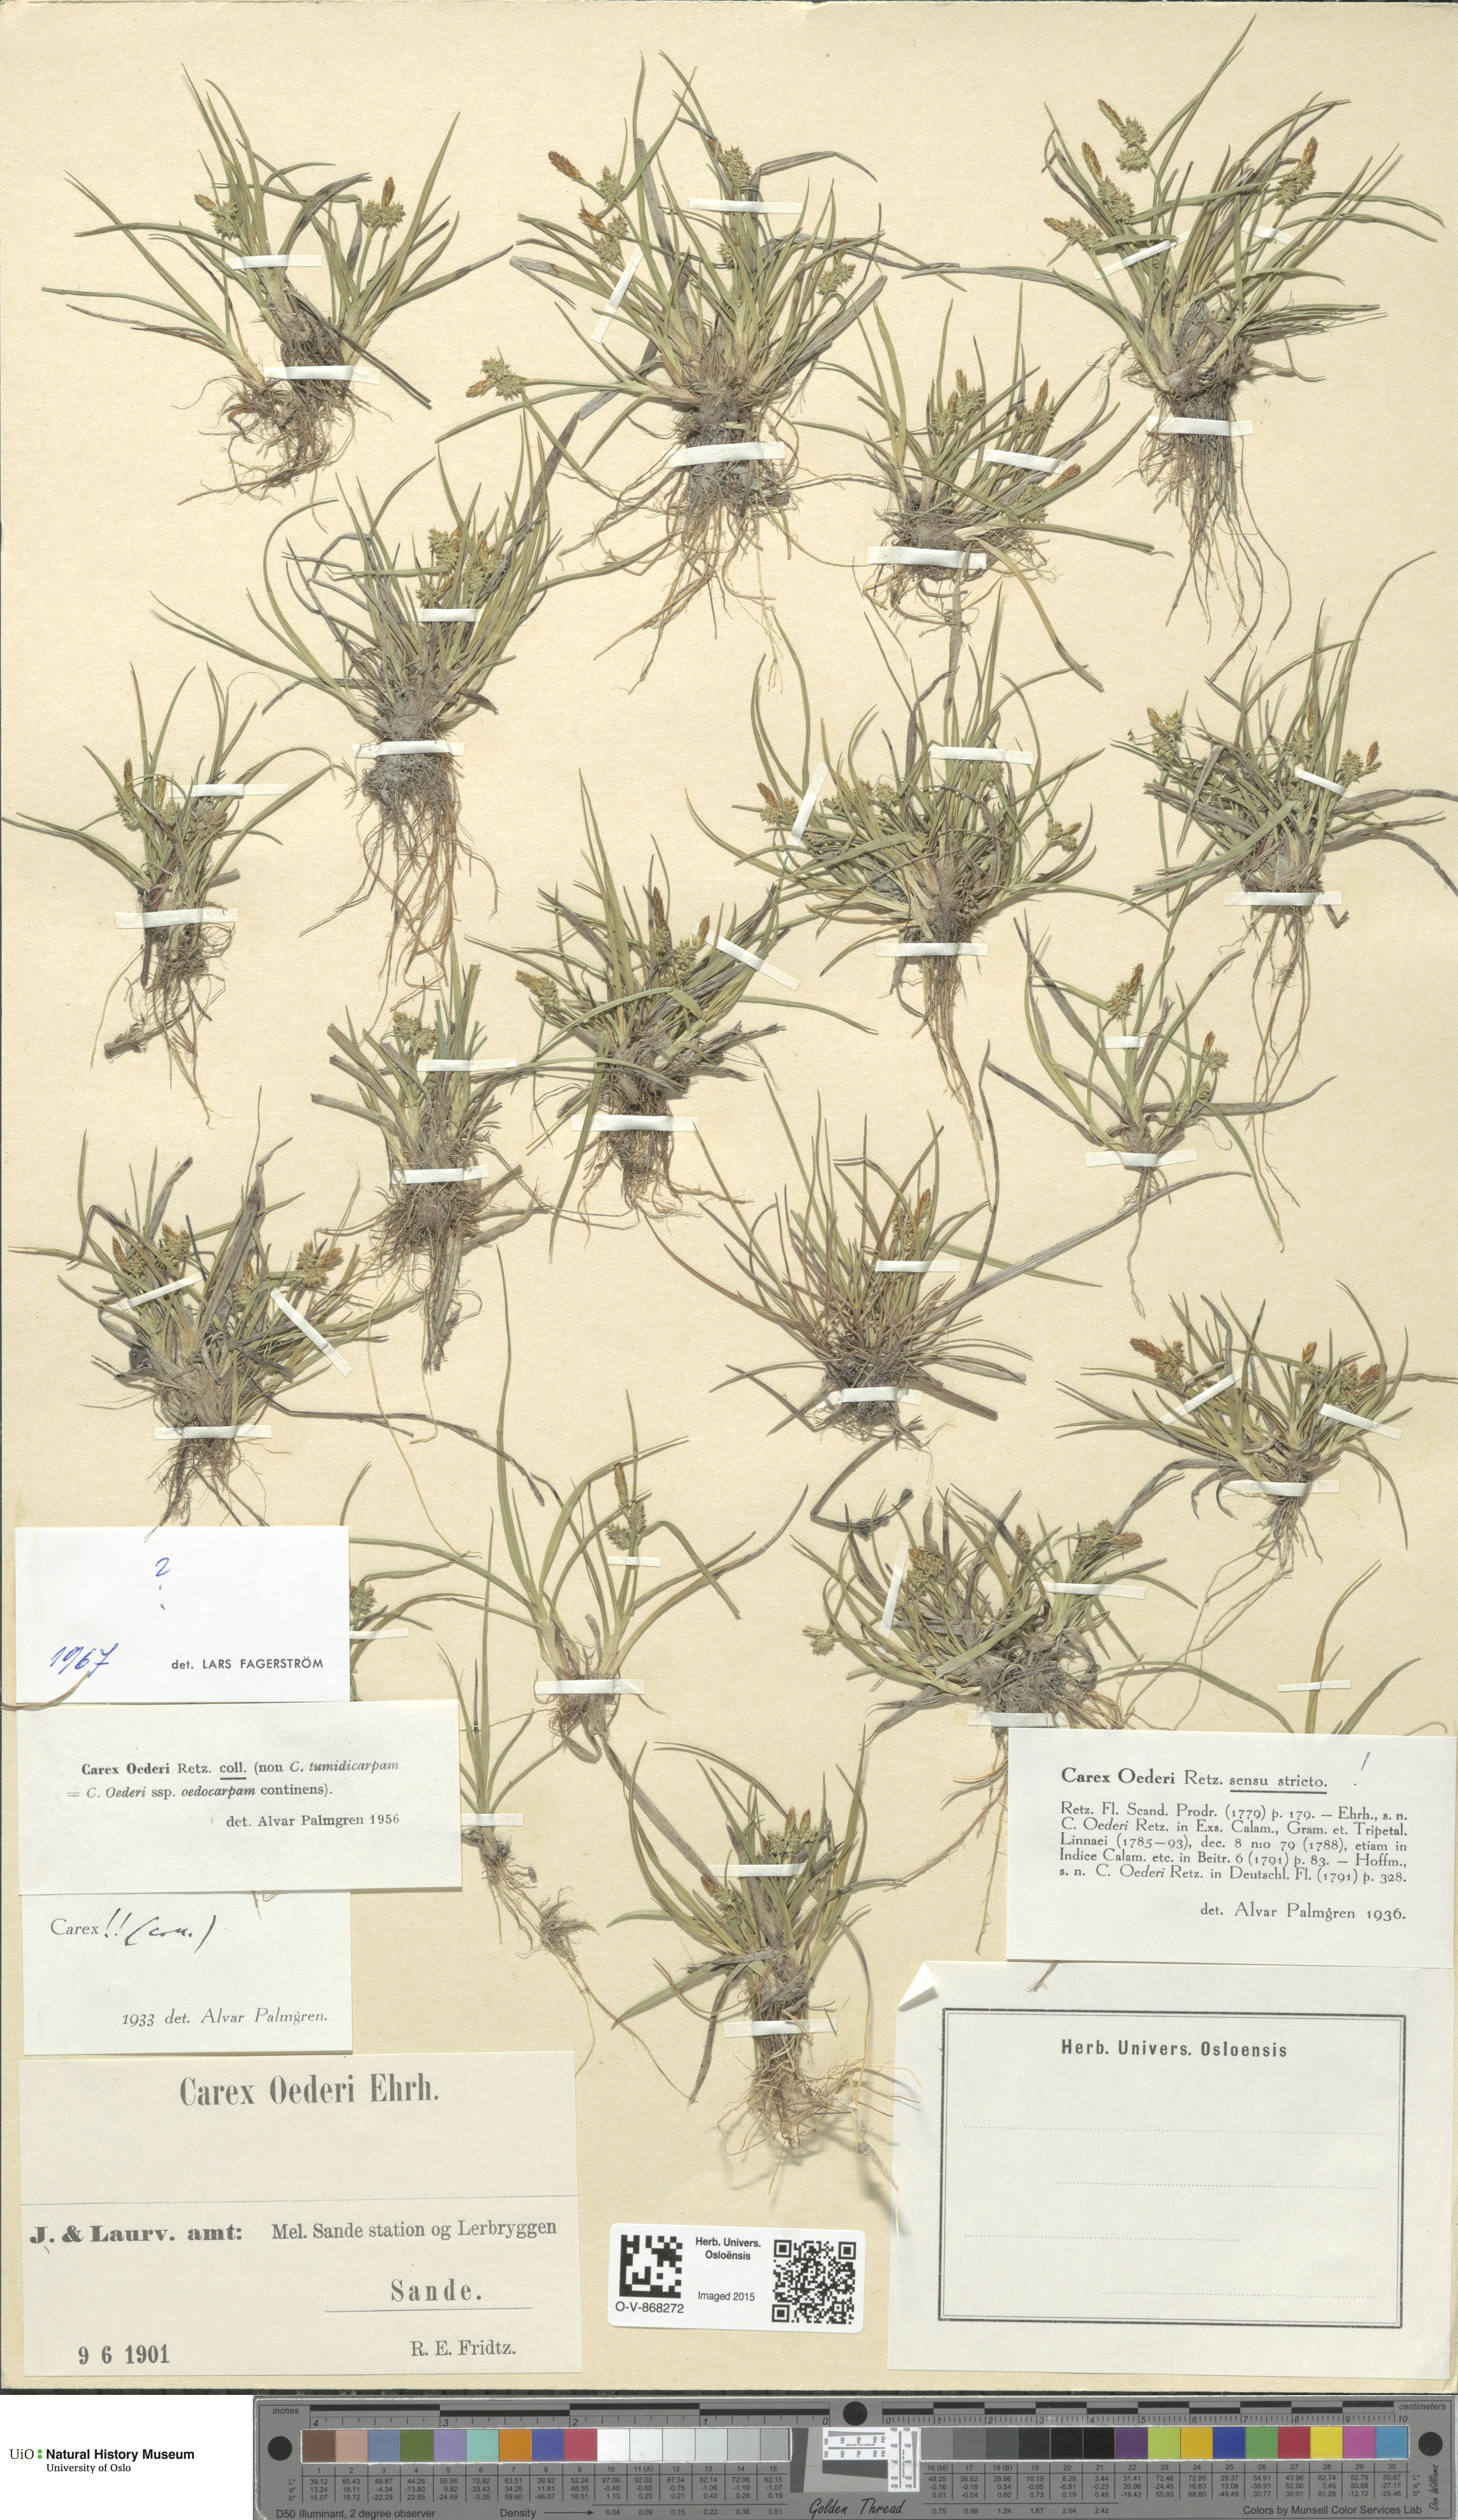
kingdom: Plantae
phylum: Tracheophyta
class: Liliopsida
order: Poales
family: Cyperaceae
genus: Carex
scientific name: Carex oederi
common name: Common & small-fruited yellow-sedge
